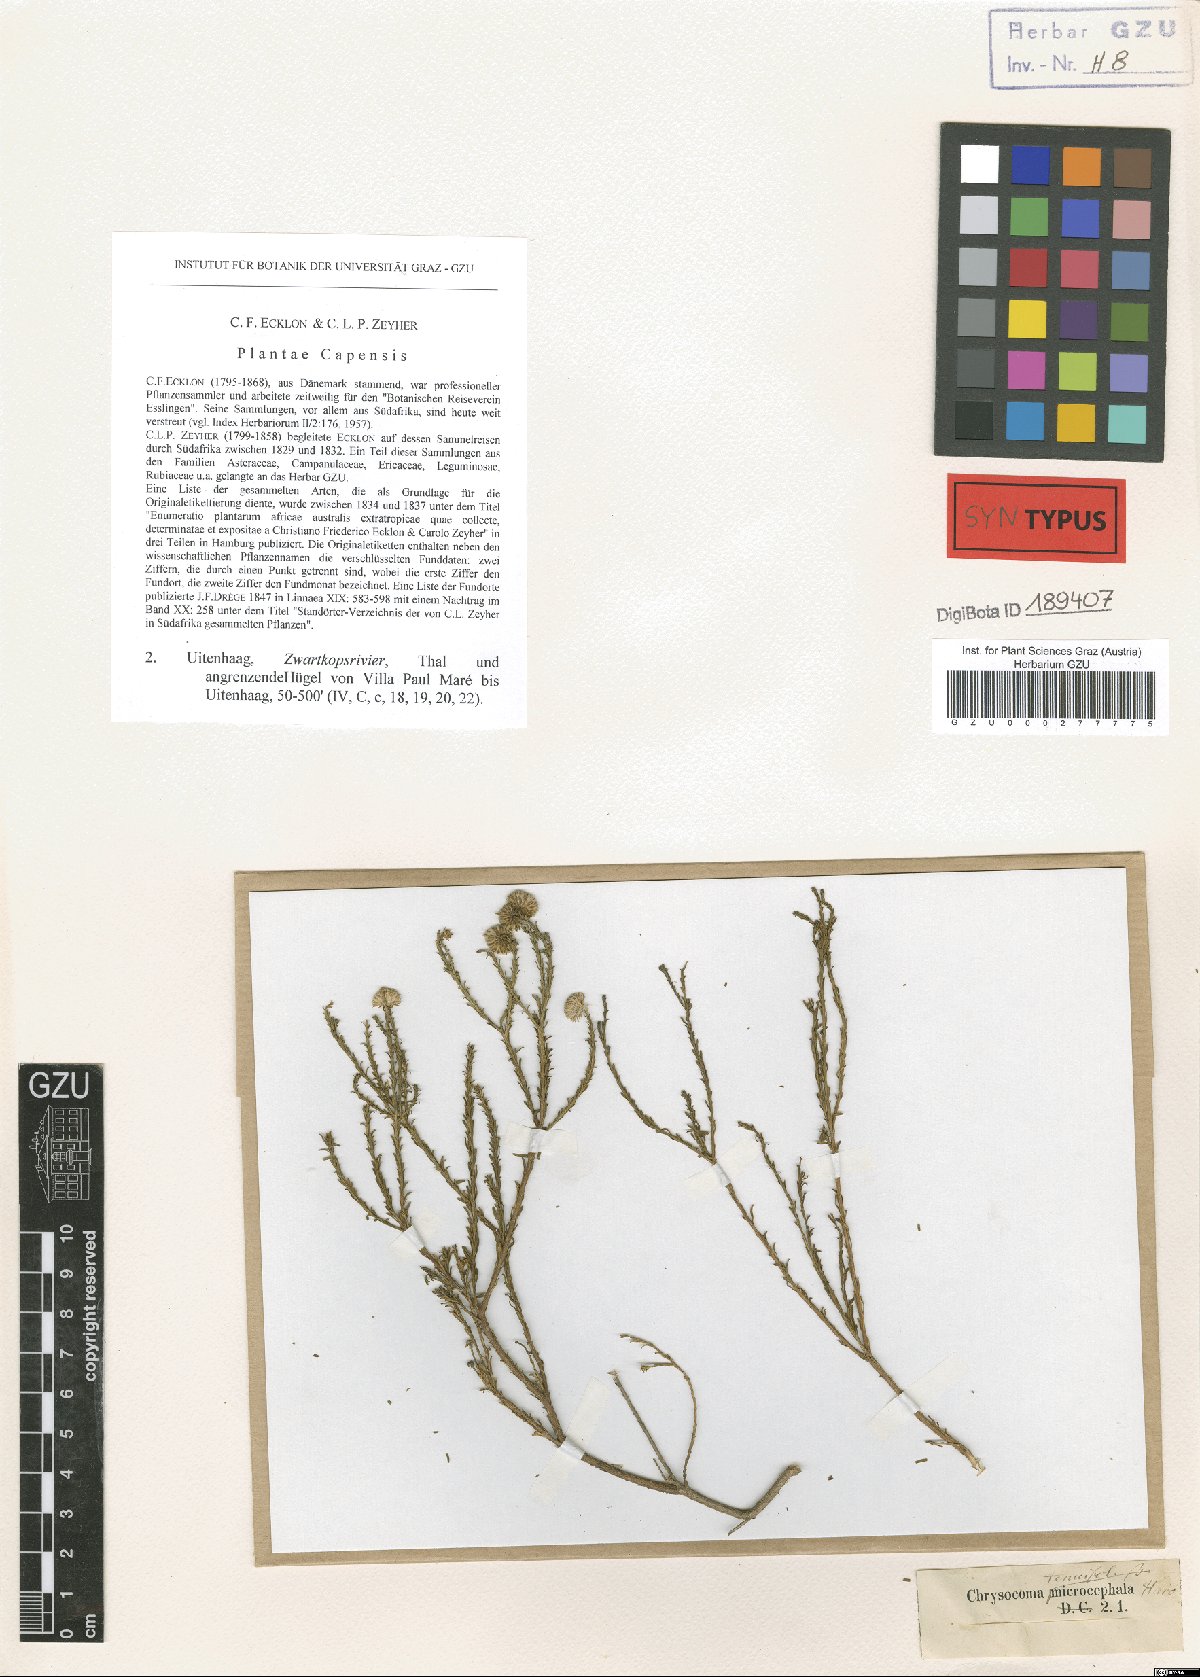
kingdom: Plantae
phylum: Tracheophyta
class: Magnoliopsida
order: Asterales
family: Asteraceae
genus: Chrysocoma
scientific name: Chrysocoma ciliata
